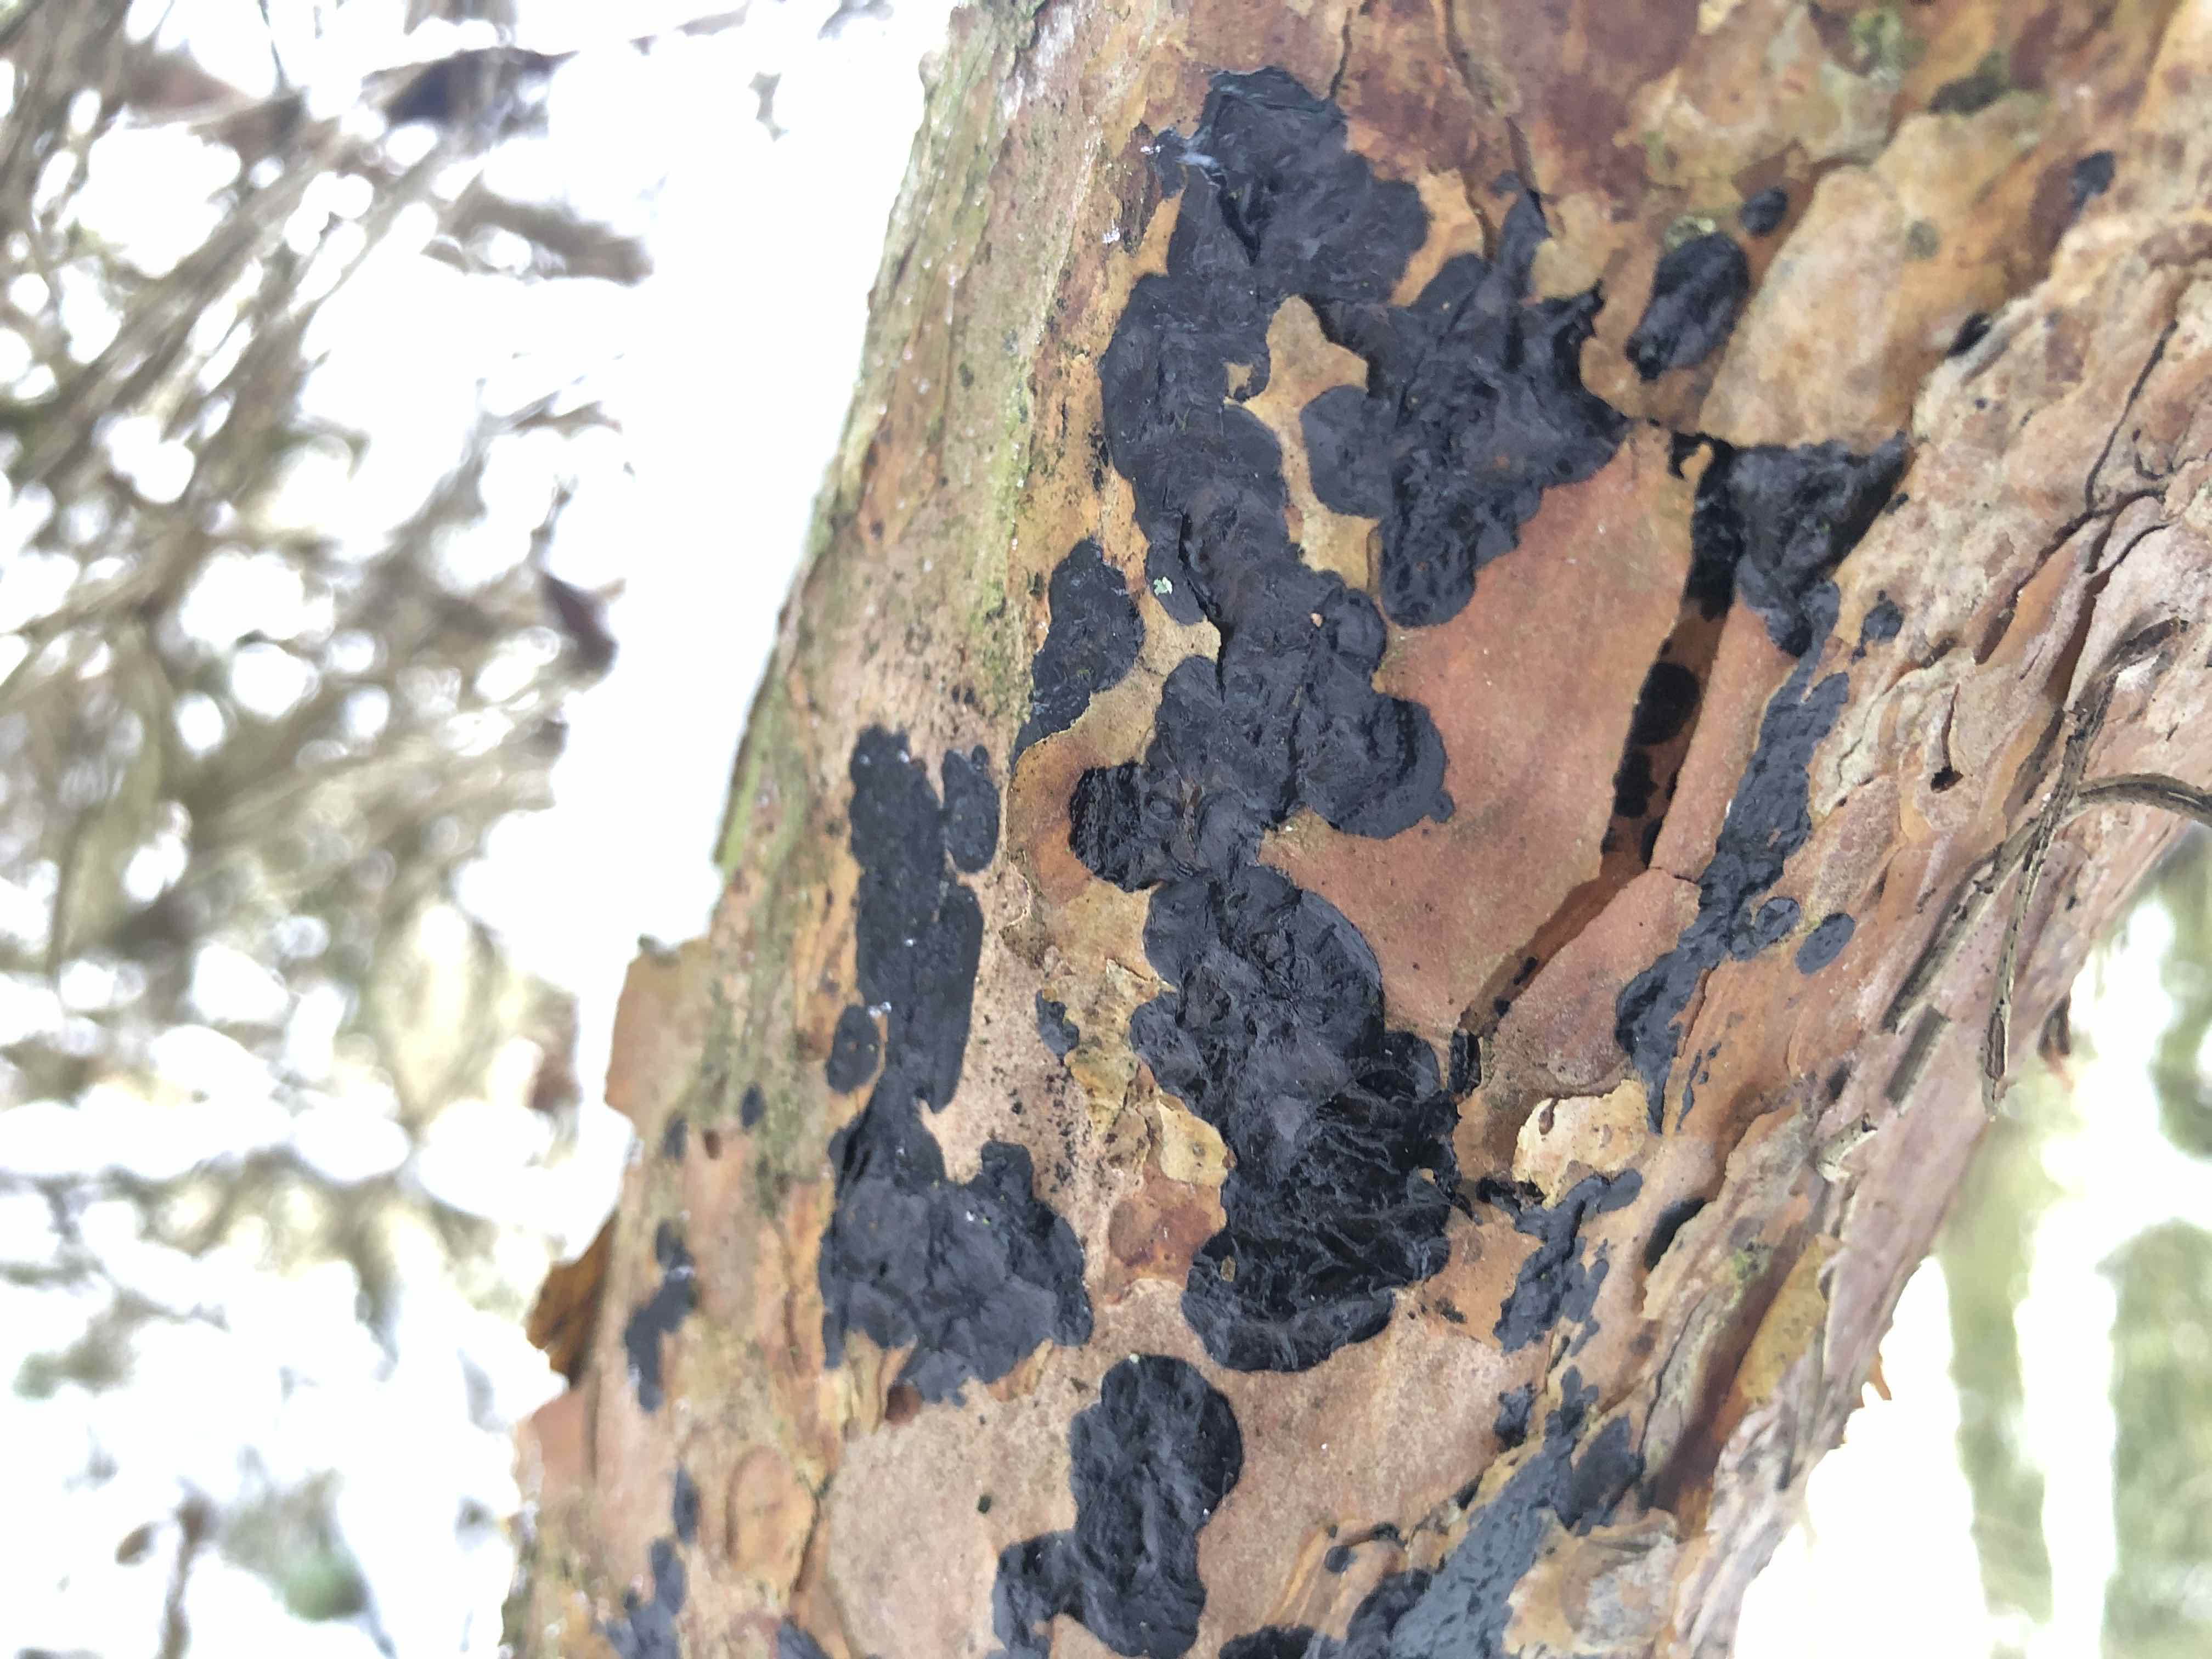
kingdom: Fungi
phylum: Basidiomycota
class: Agaricomycetes
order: Auriculariales
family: Auriculariaceae
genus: Exidia
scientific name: Exidia pithya
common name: gran-bævretop
